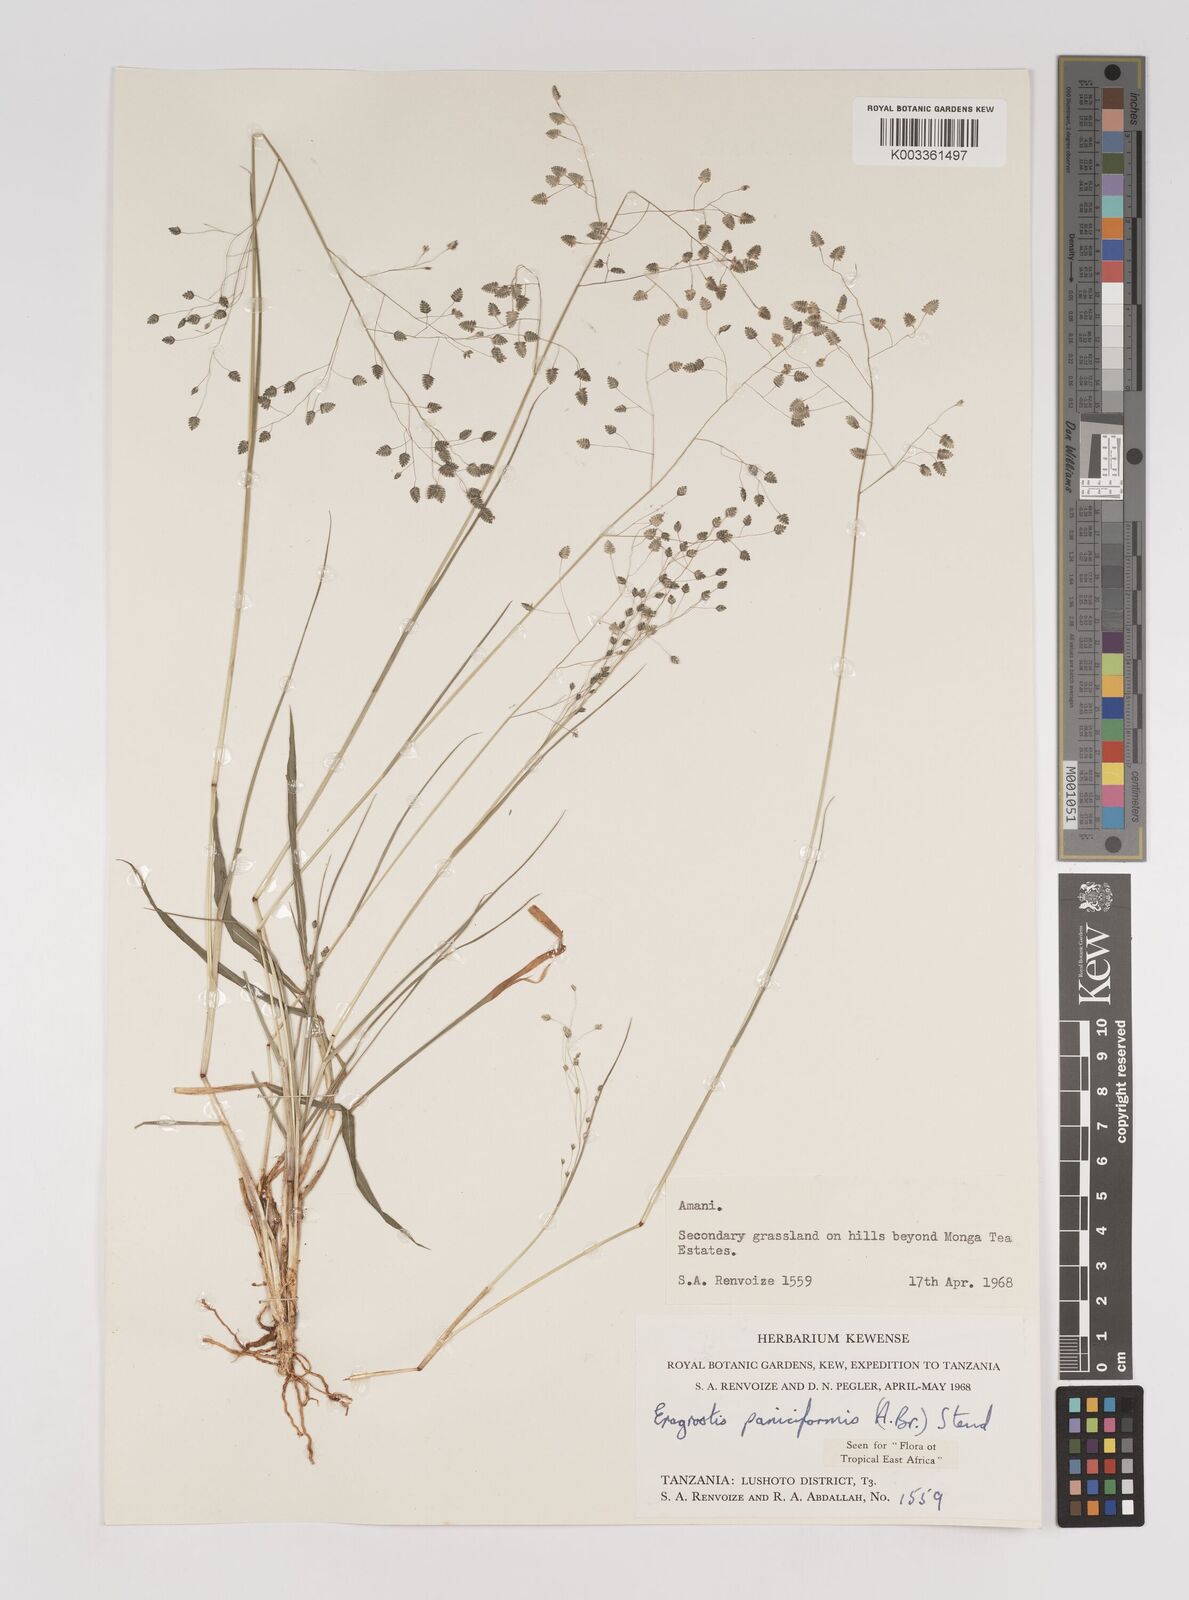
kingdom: Plantae
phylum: Tracheophyta
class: Liliopsida
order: Poales
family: Poaceae
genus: Eragrostis
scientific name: Eragrostis paniciformis
